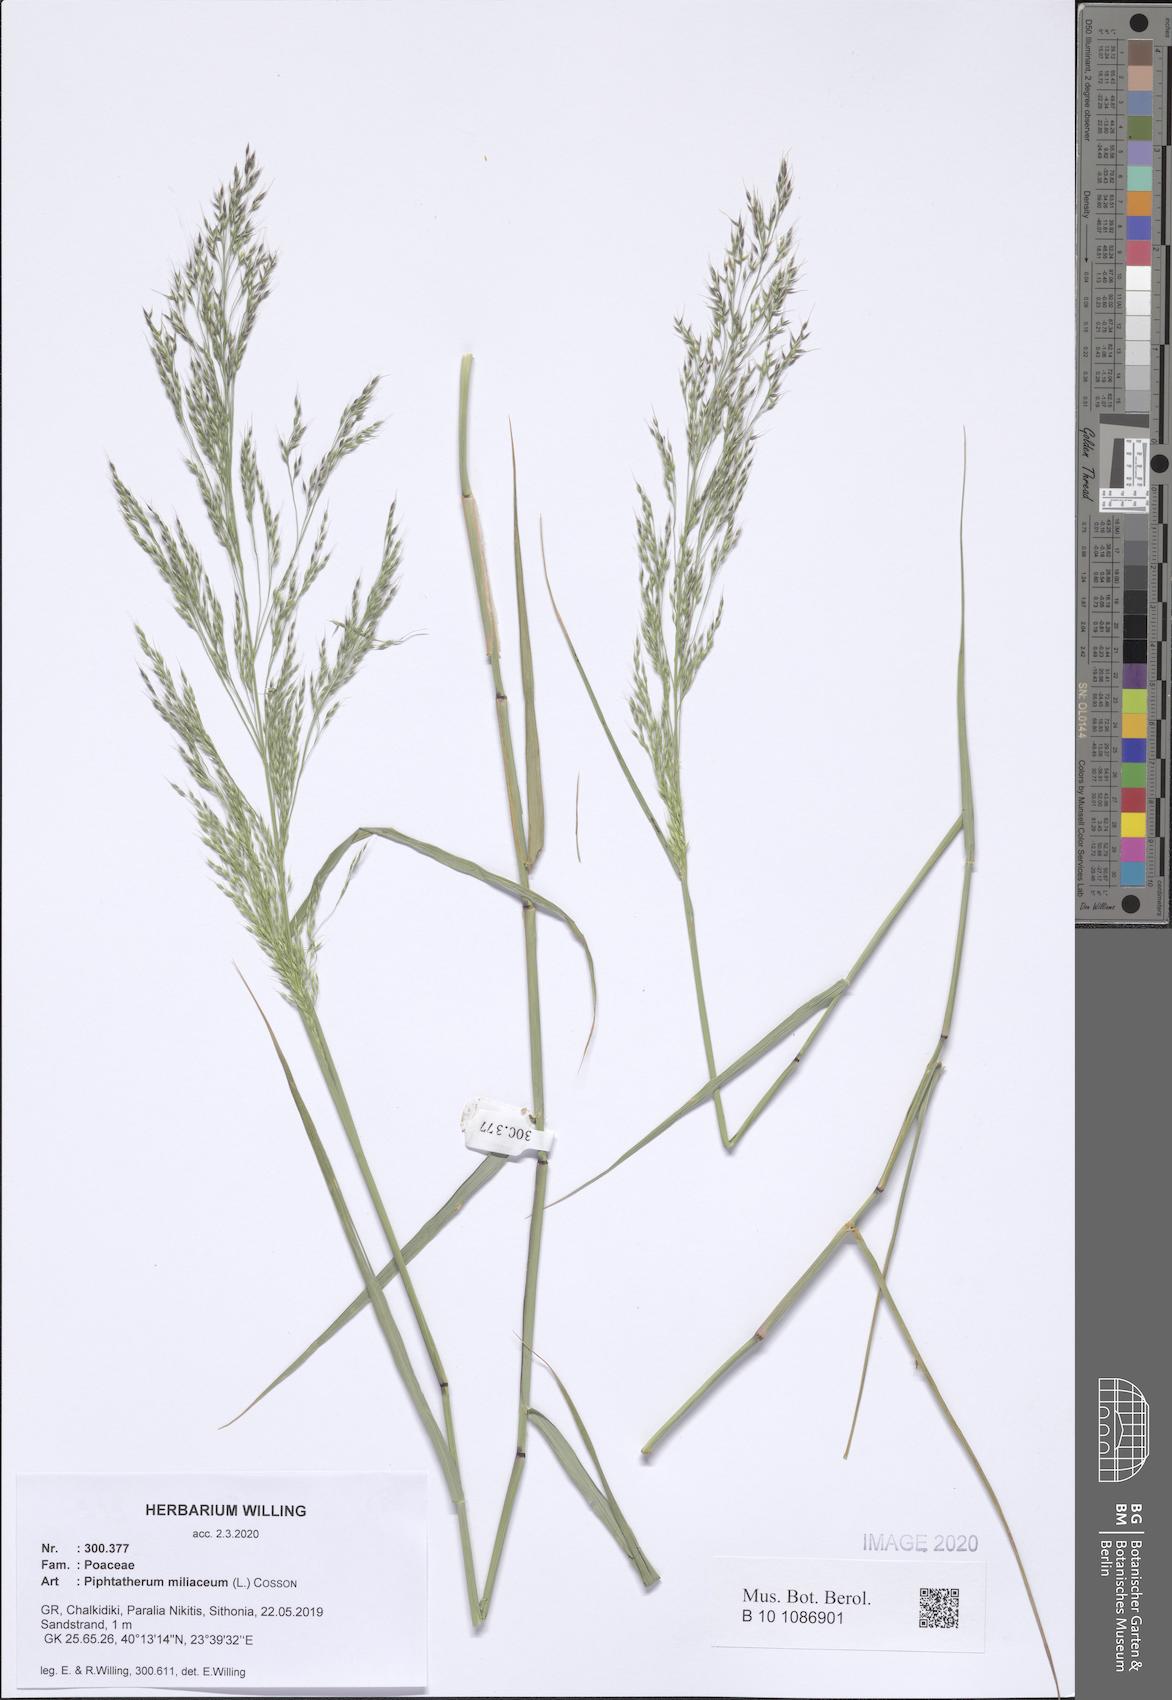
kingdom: Plantae
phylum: Tracheophyta
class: Liliopsida
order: Poales
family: Poaceae
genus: Oloptum
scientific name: Oloptum miliaceum
